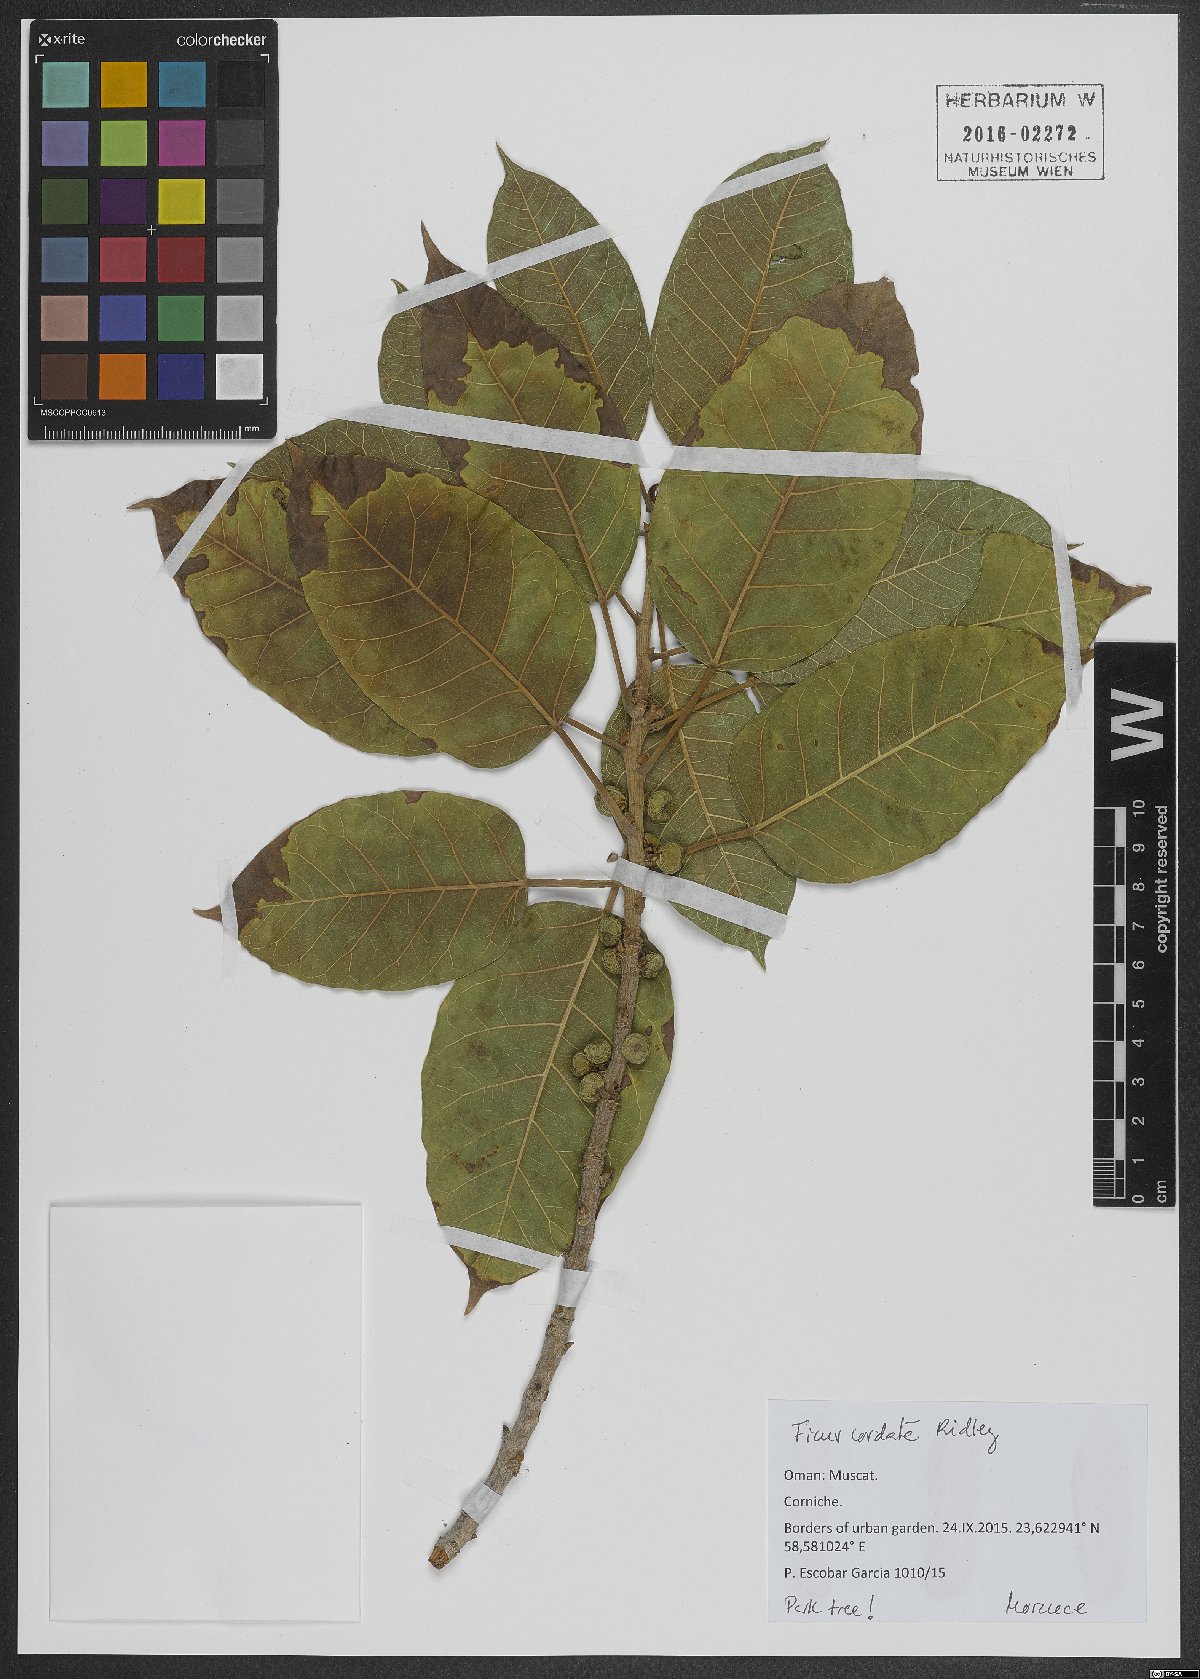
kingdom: Plantae
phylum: Tracheophyta
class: Magnoliopsida
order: Rosales
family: Moraceae
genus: Ficus
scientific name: Ficus cordata
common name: Namaqua rock fig
